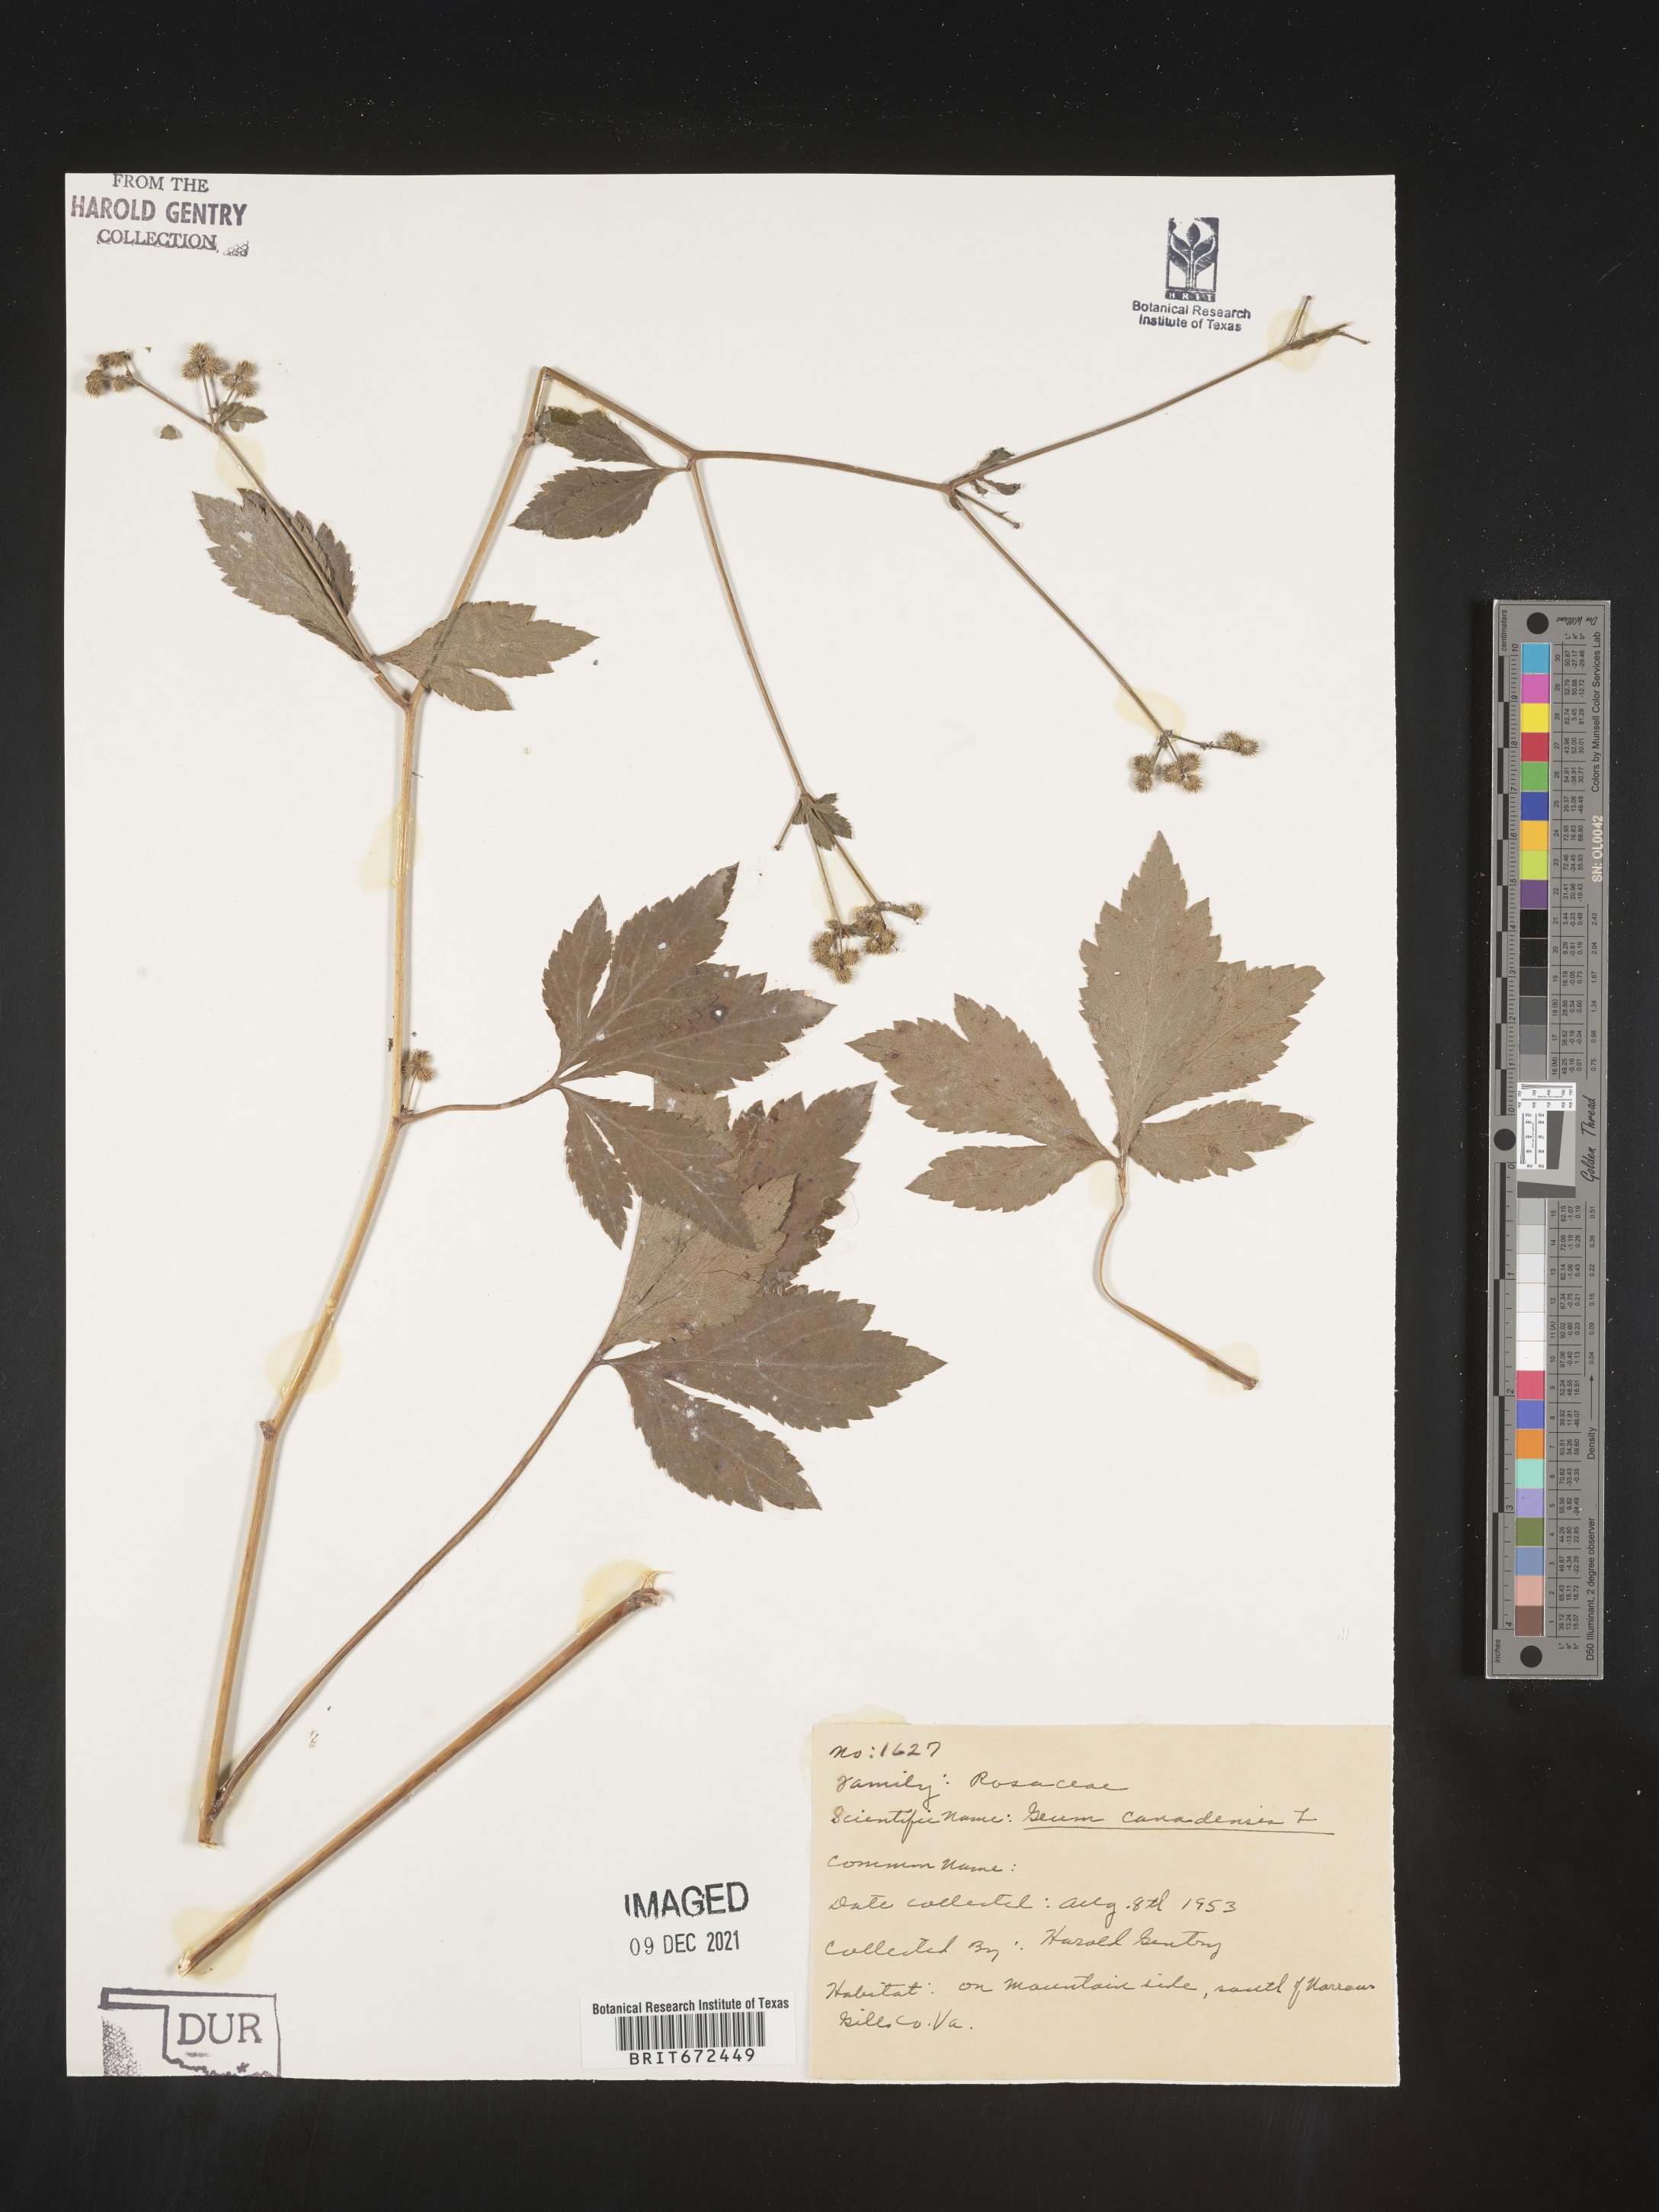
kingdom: Plantae
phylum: Tracheophyta
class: Magnoliopsida
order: Apiales
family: Apiaceae
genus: Sanicula
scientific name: Sanicula canadensis
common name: Canada sanicle
